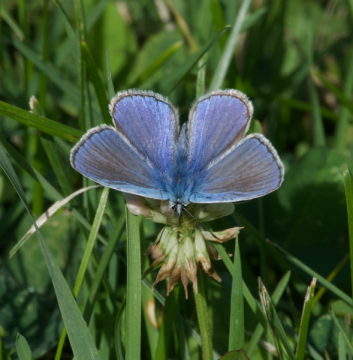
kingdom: Animalia
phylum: Arthropoda
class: Insecta
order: Lepidoptera
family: Lycaenidae
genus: Polyommatus
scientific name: Polyommatus icarus
